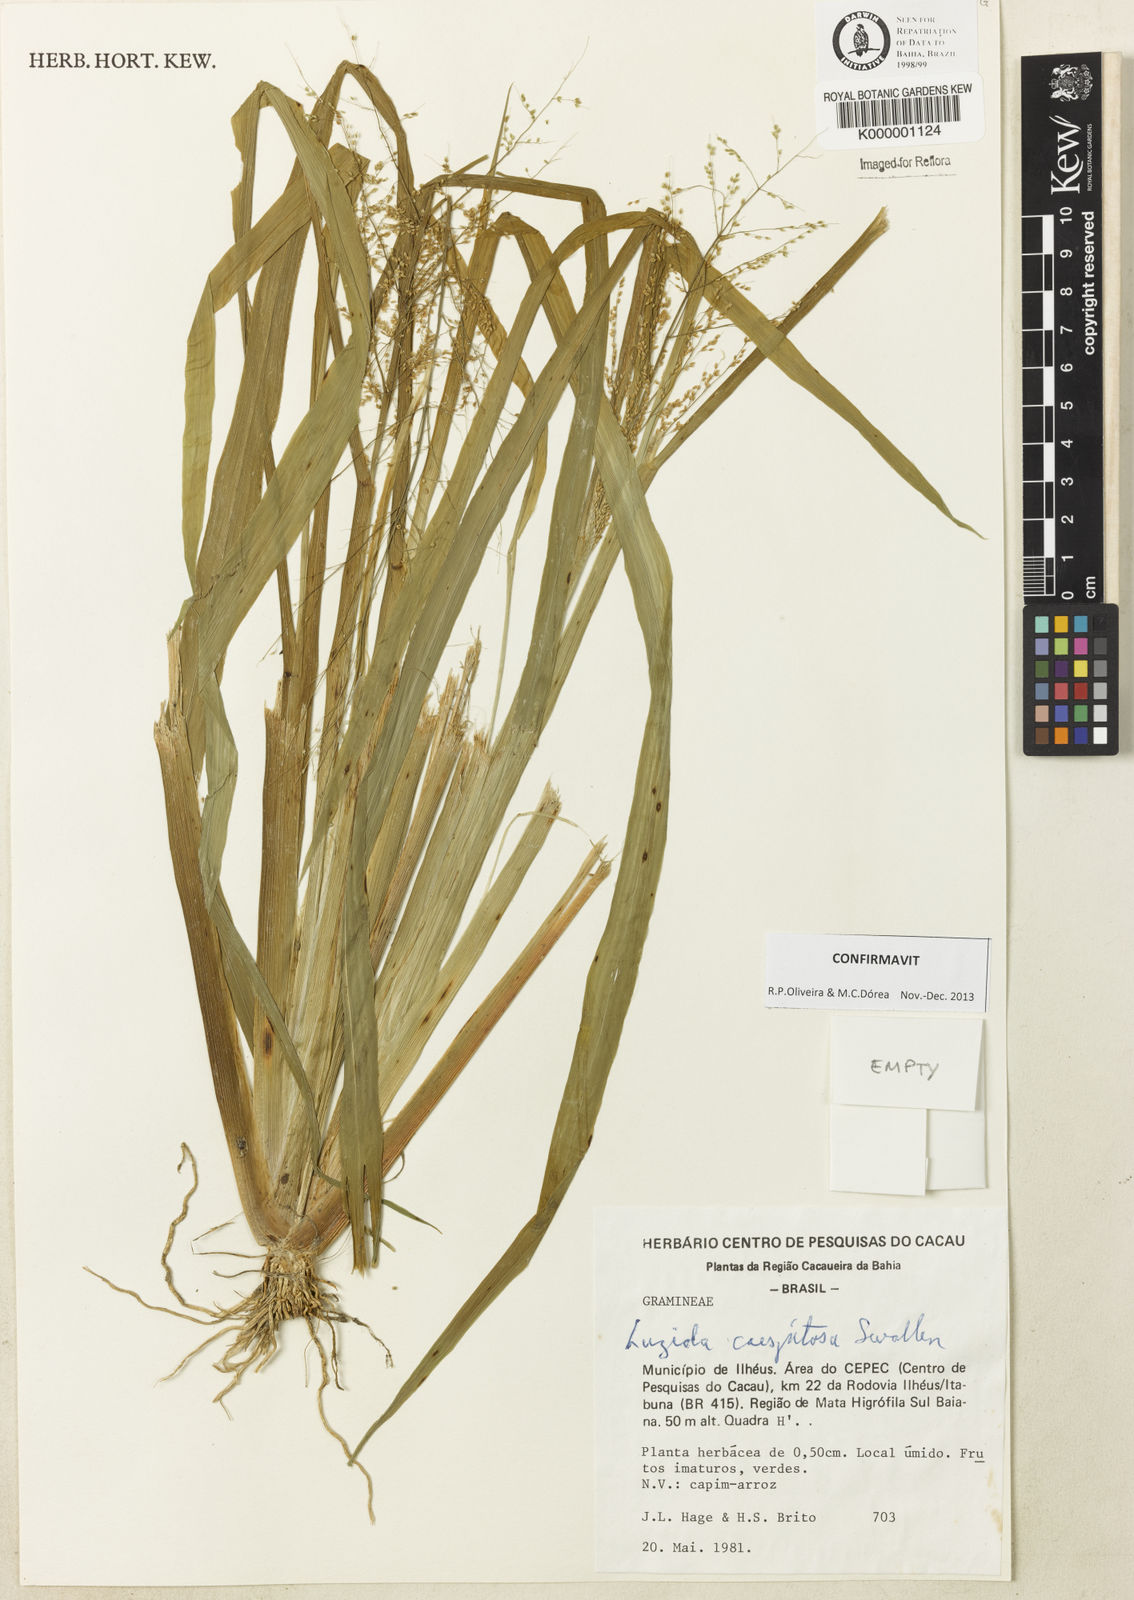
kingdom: Plantae
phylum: Tracheophyta
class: Liliopsida
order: Poales
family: Poaceae
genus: Luziola
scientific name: Luziola caespitosa
